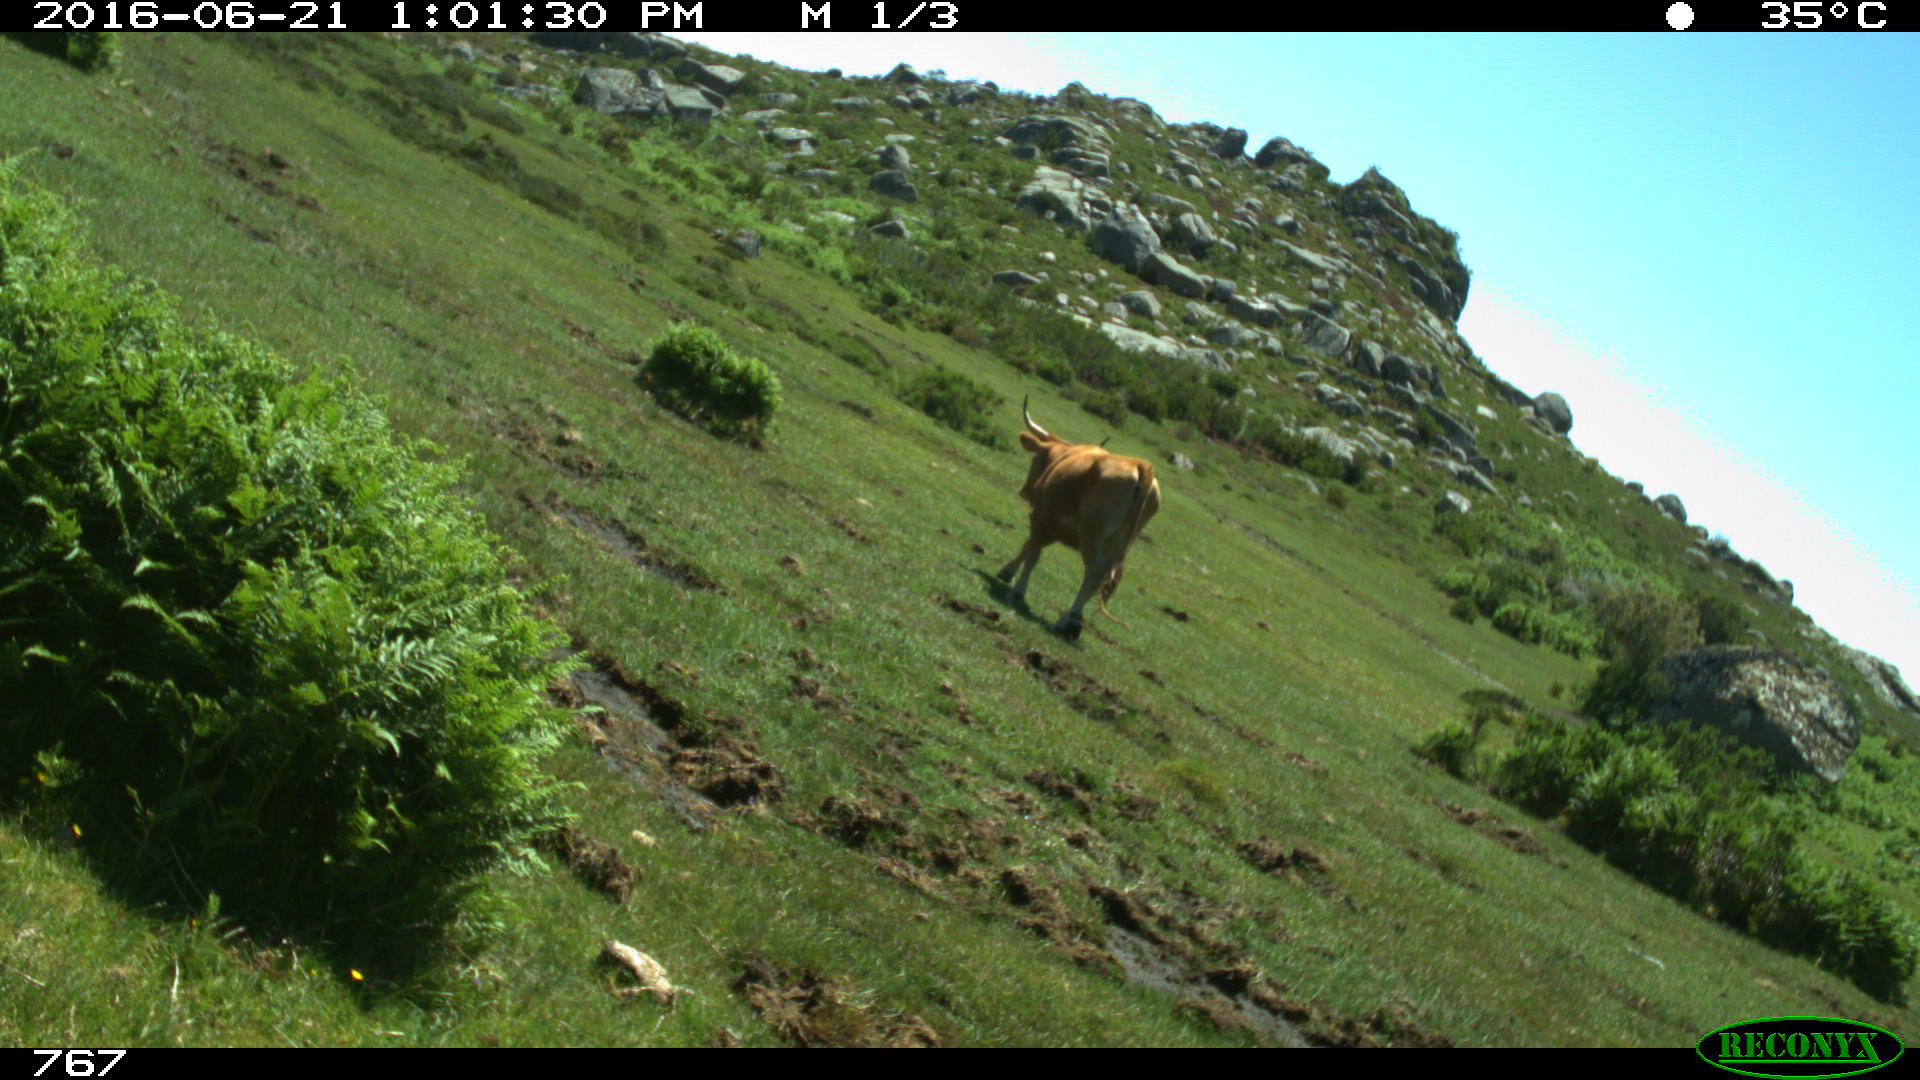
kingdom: Animalia
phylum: Chordata
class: Mammalia
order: Artiodactyla
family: Bovidae
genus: Bos
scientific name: Bos taurus
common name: Domesticated cattle
